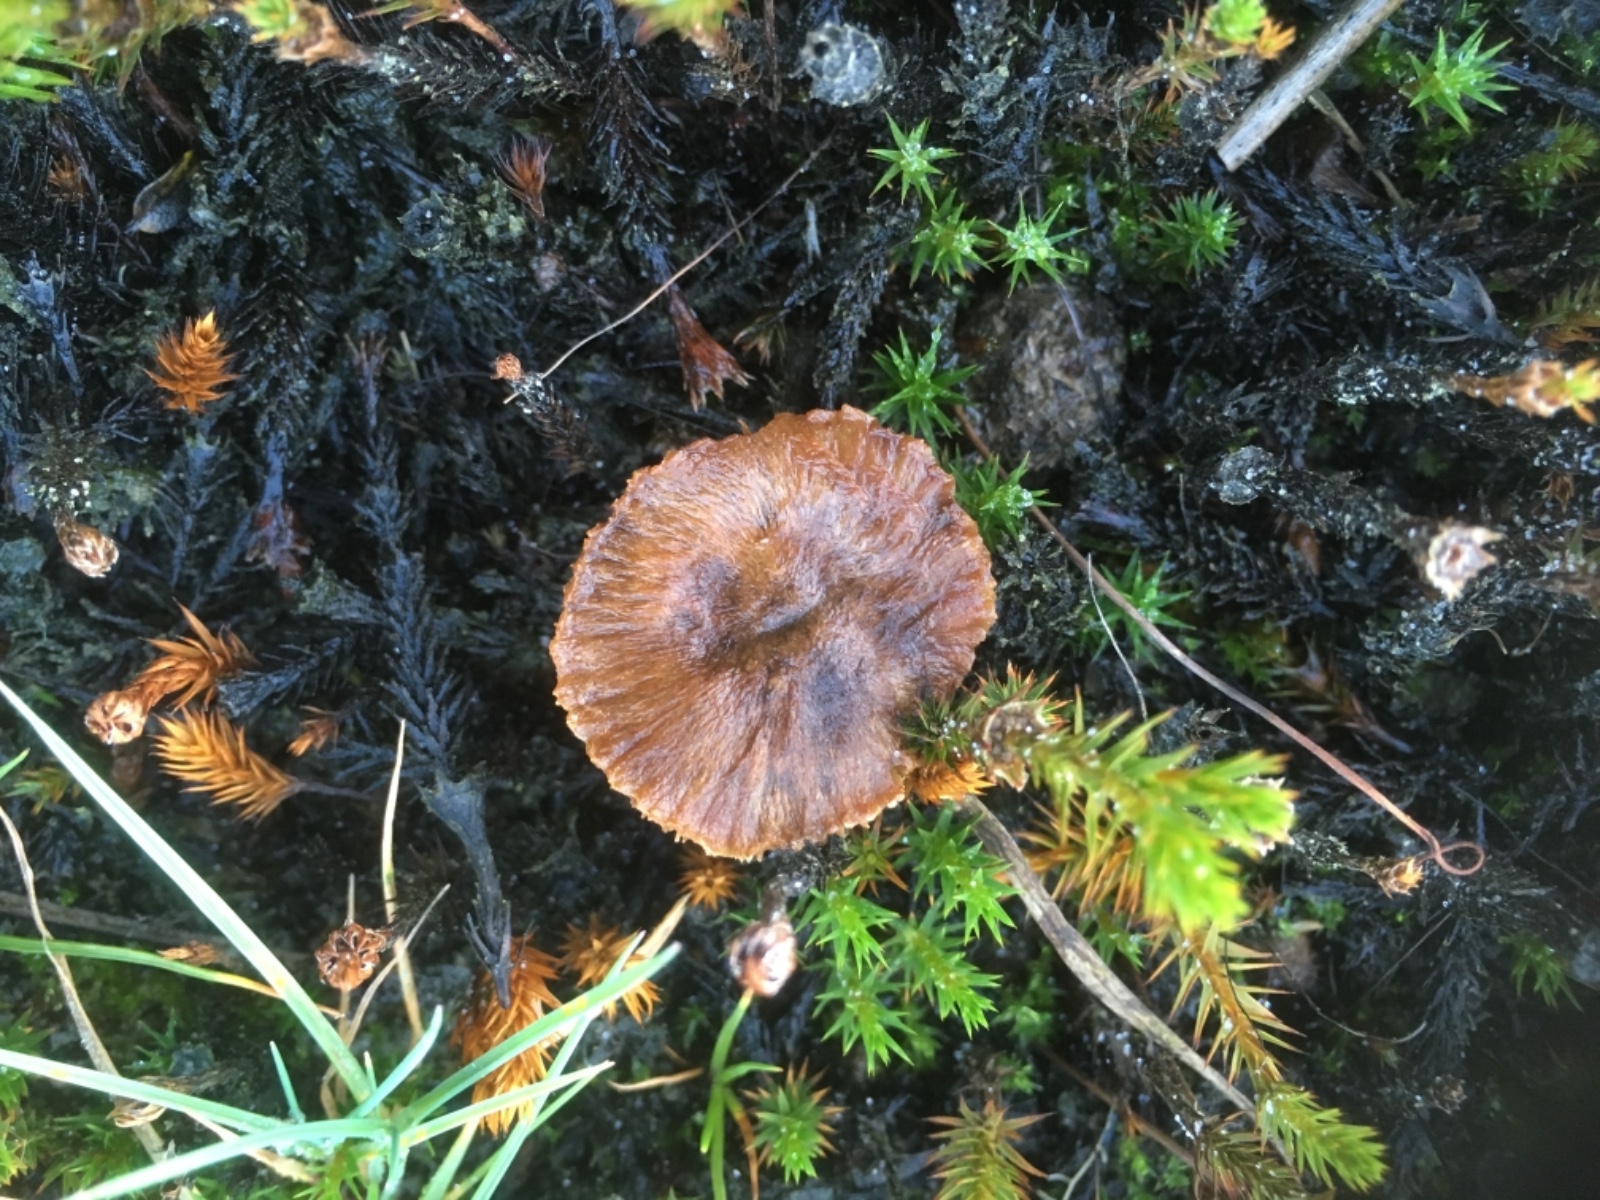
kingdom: Fungi
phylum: Basidiomycota
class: Agaricomycetes
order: Agaricales
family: Strophariaceae
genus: Deconica
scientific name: Deconica montana
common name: rødbrun stråhat
